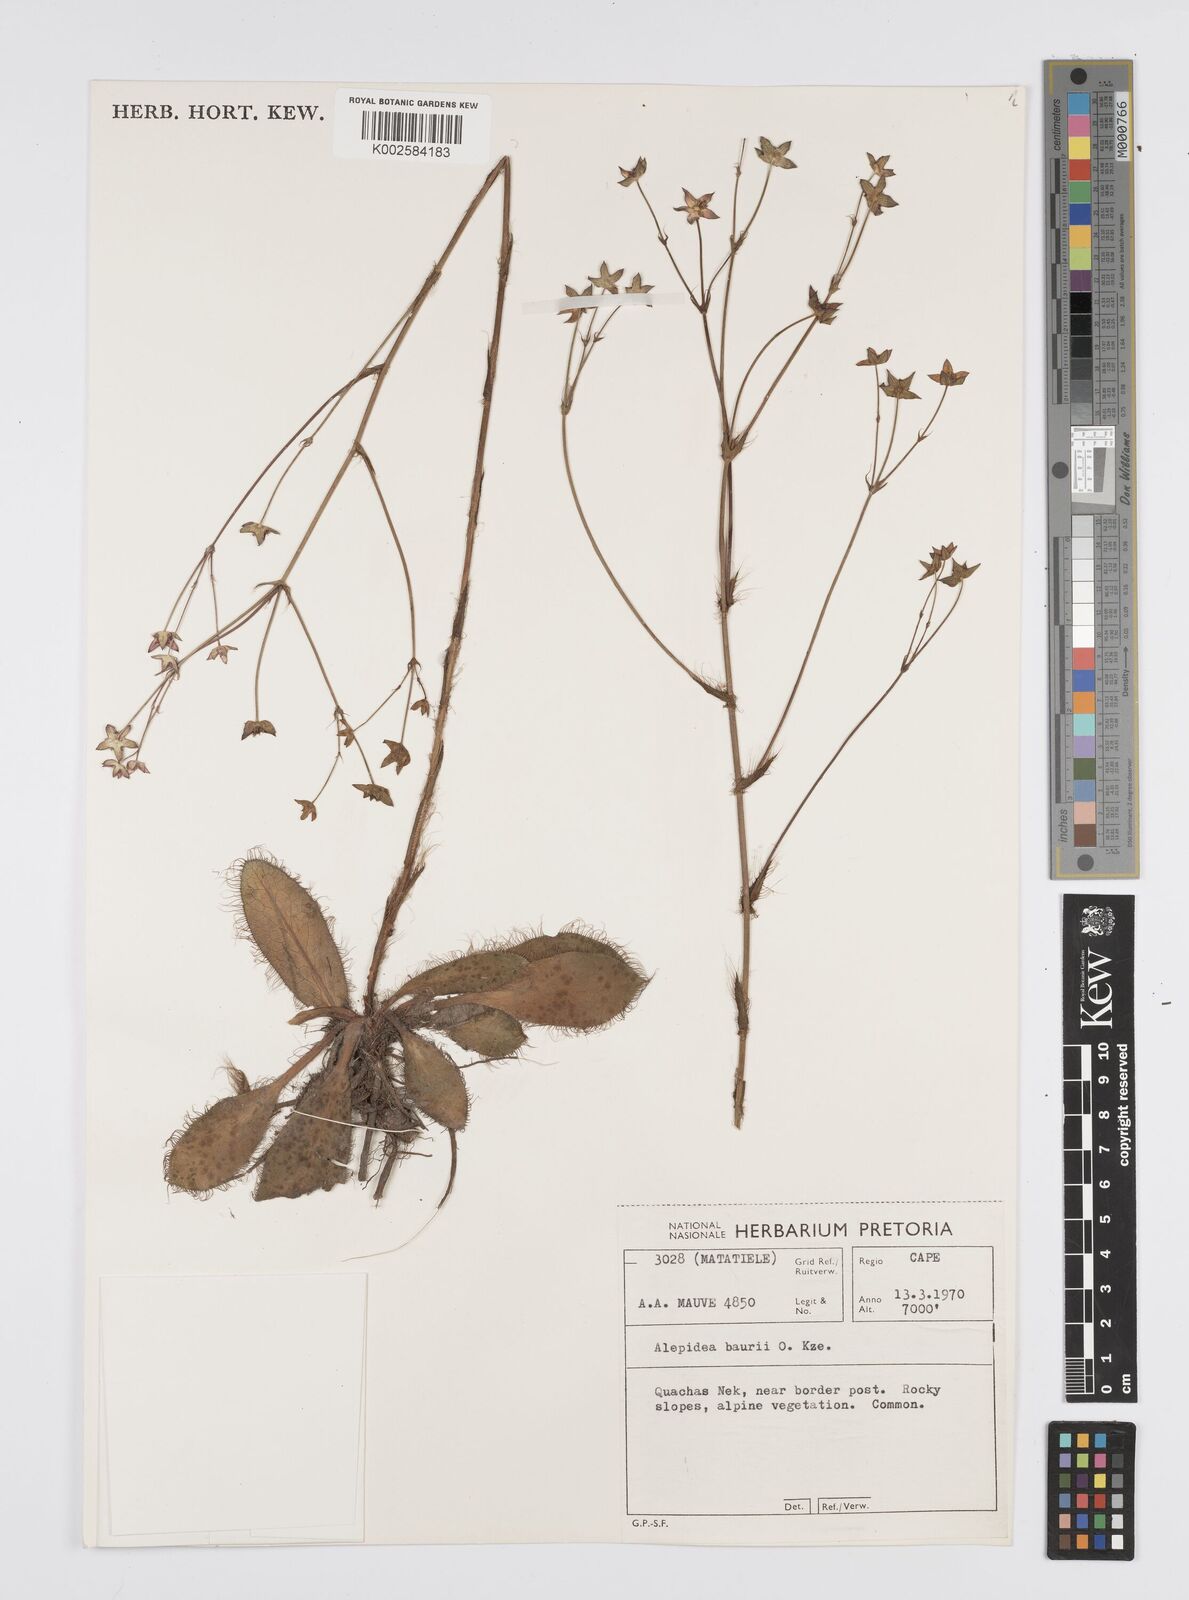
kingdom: Plantae
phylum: Tracheophyta
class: Magnoliopsida
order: Apiales
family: Apiaceae
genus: Alepidea
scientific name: Alepidea natalensis
